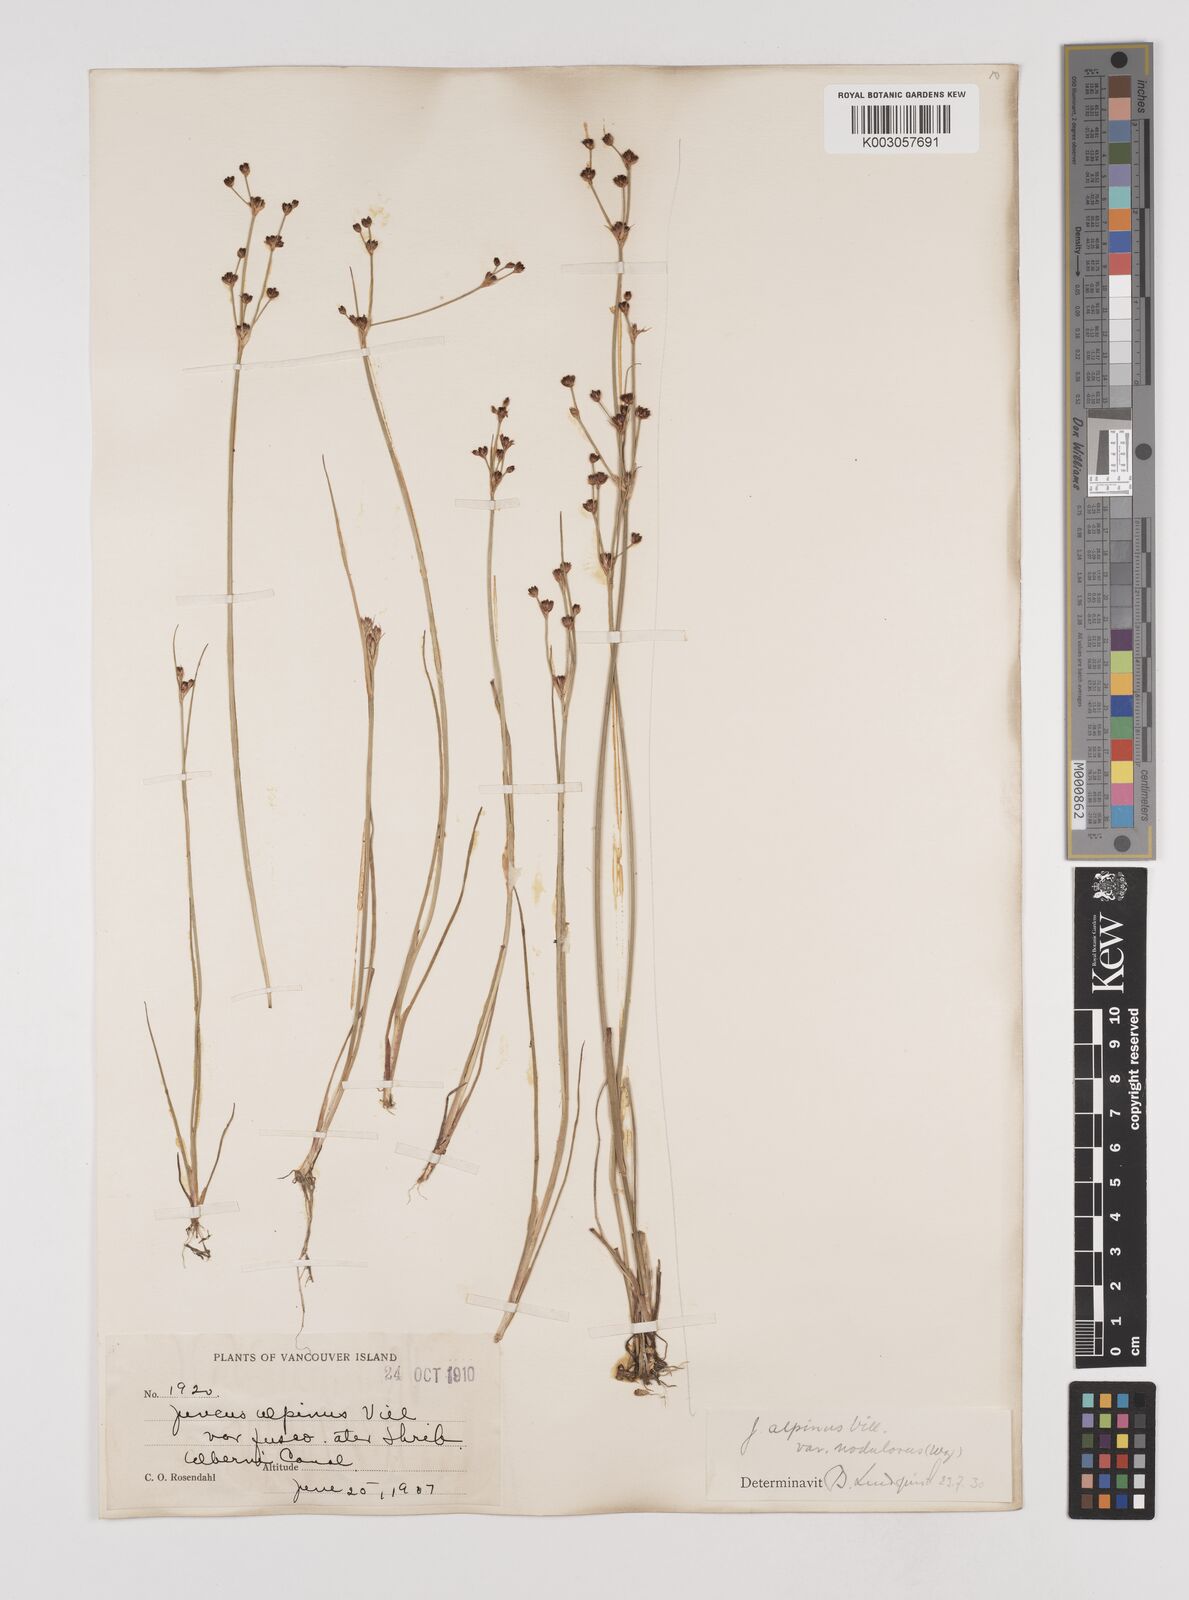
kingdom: Plantae
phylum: Tracheophyta
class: Liliopsida
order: Poales
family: Juncaceae
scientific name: Juncaceae
